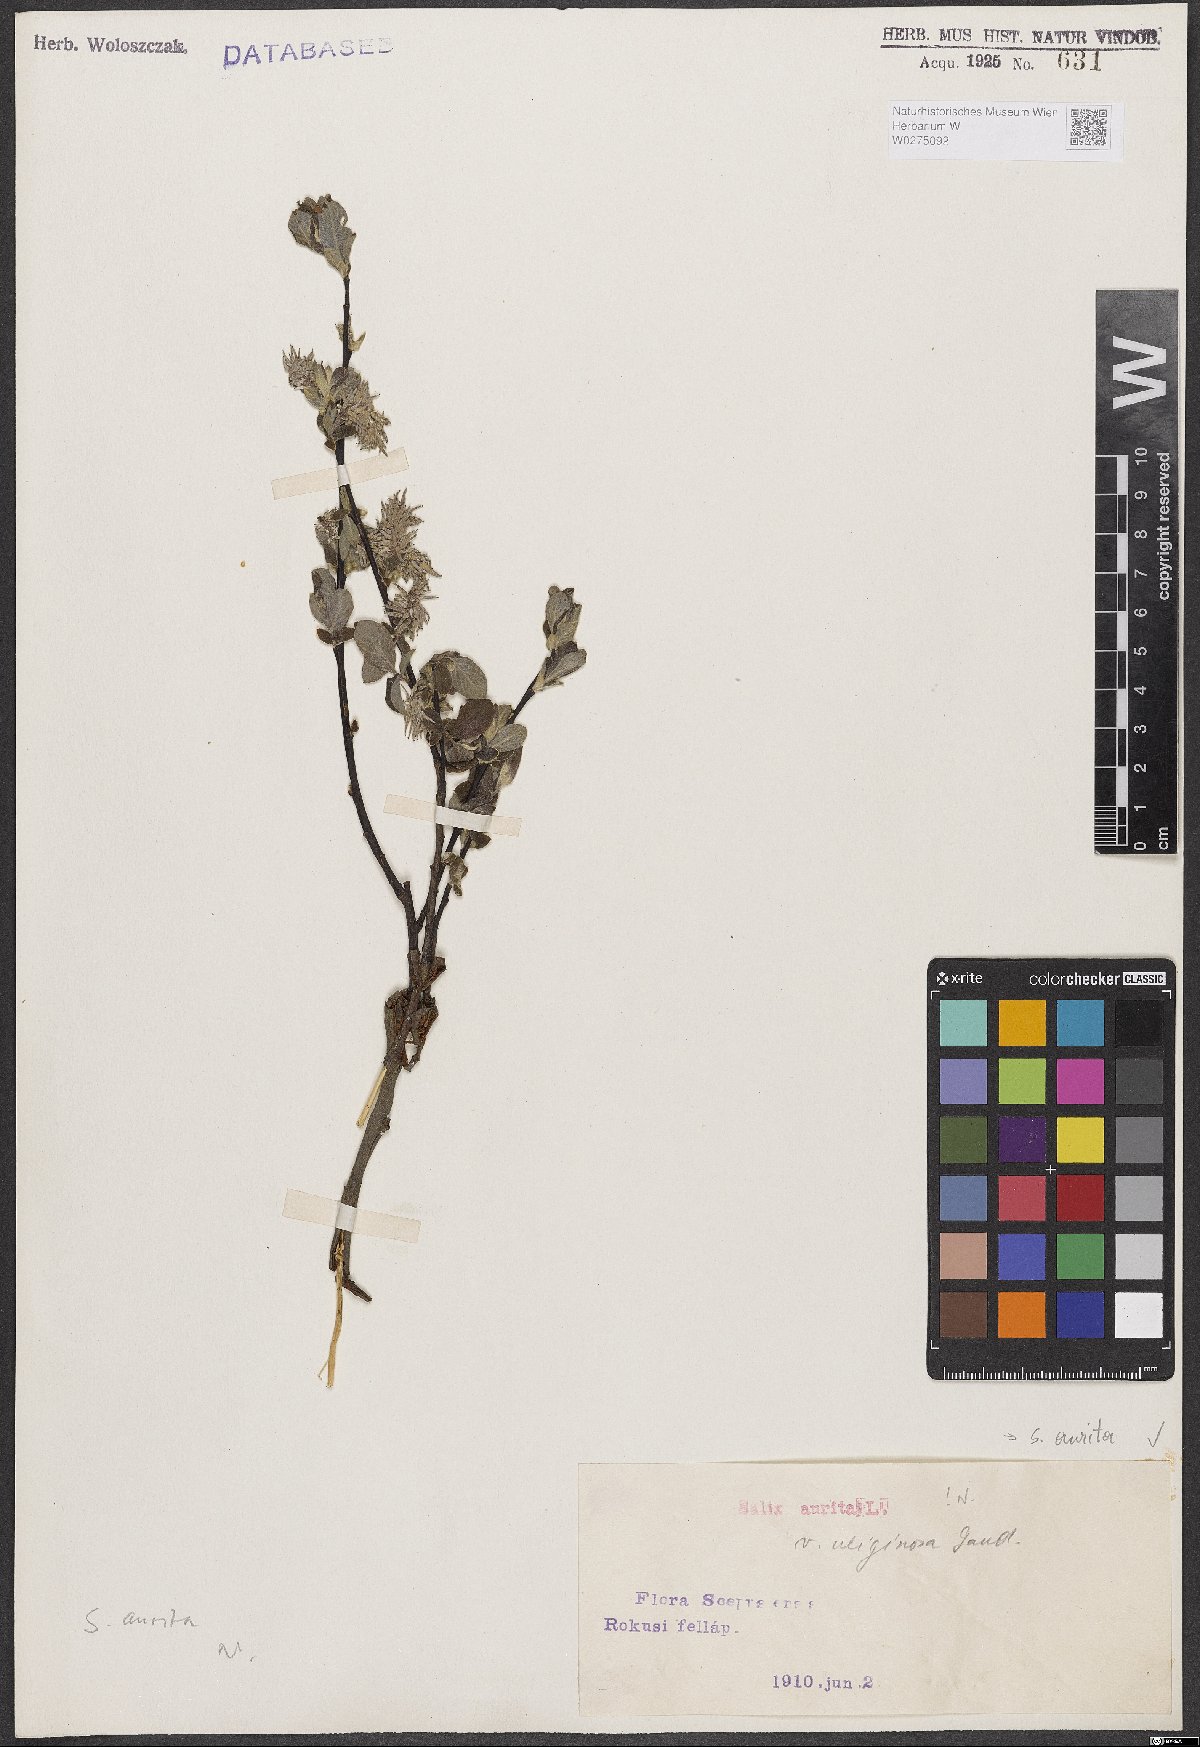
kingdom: Plantae
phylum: Tracheophyta
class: Magnoliopsida
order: Malpighiales
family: Salicaceae
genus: Salix
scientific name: Salix aurita
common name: Eared willow
